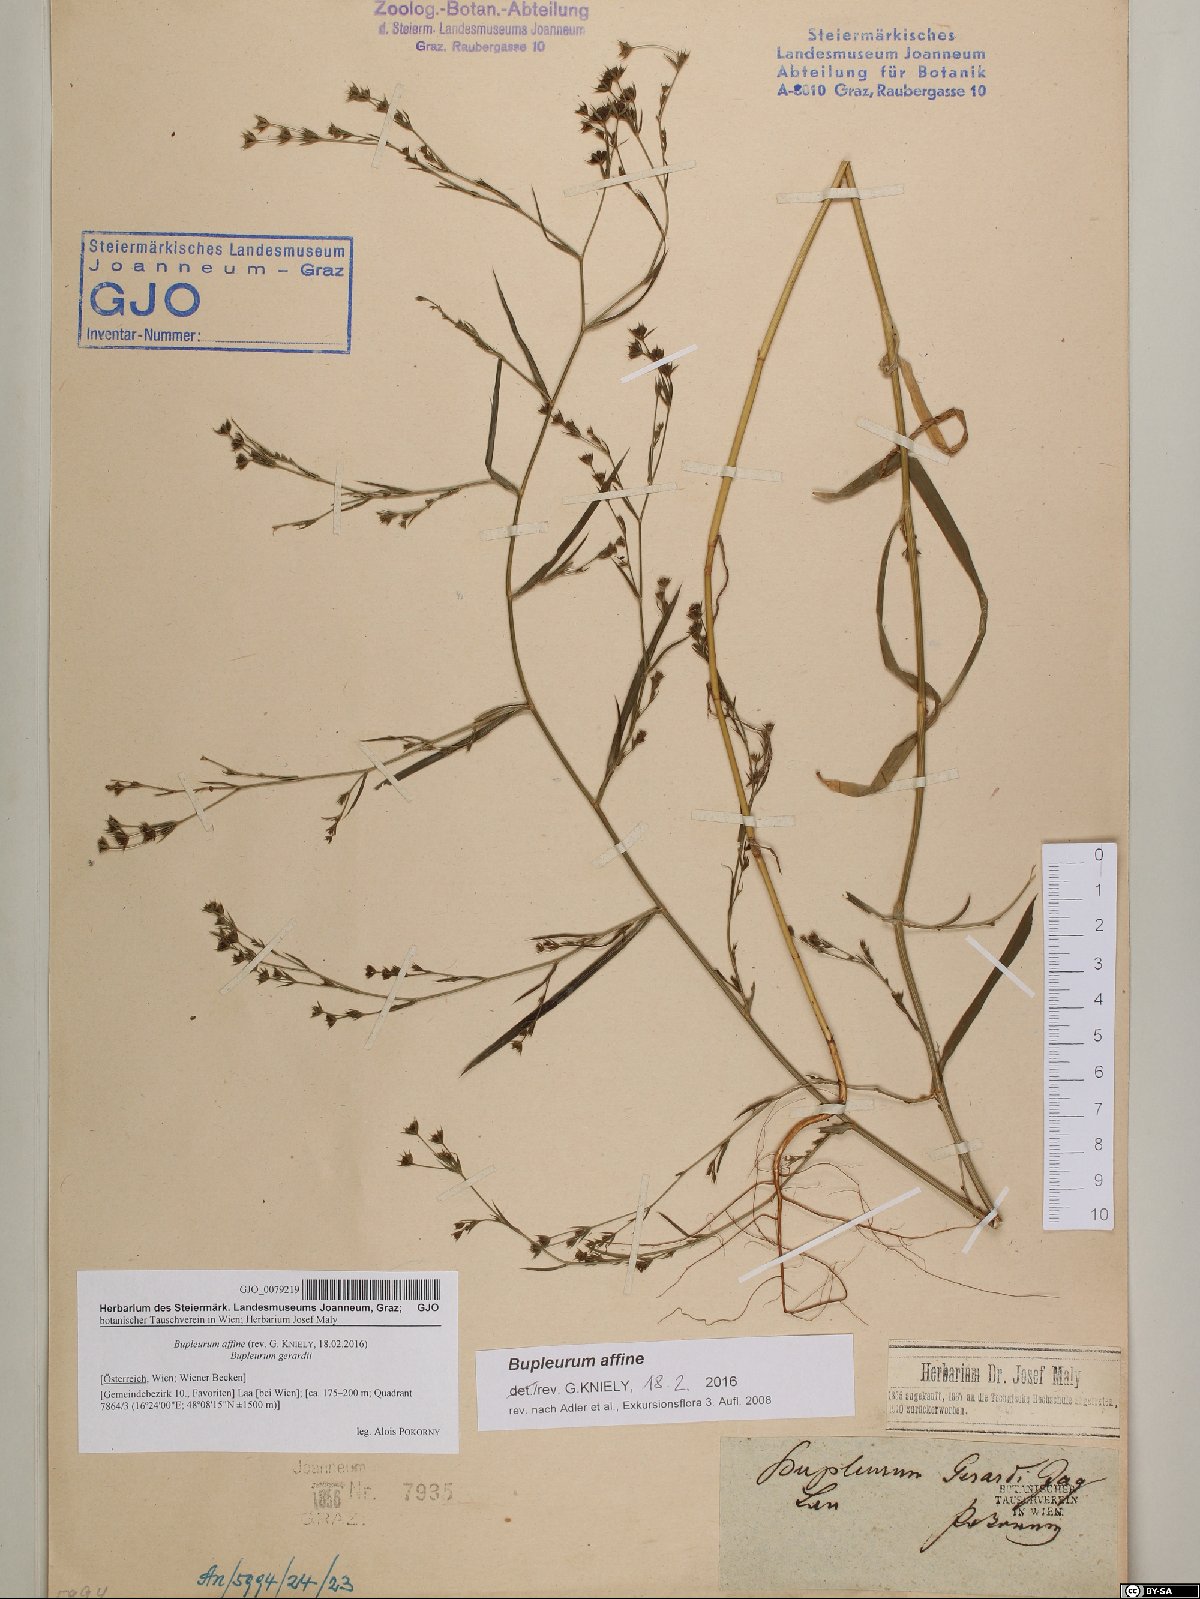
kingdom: Plantae
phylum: Tracheophyta
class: Magnoliopsida
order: Apiales
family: Apiaceae
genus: Bupleurum
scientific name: Bupleurum affine
